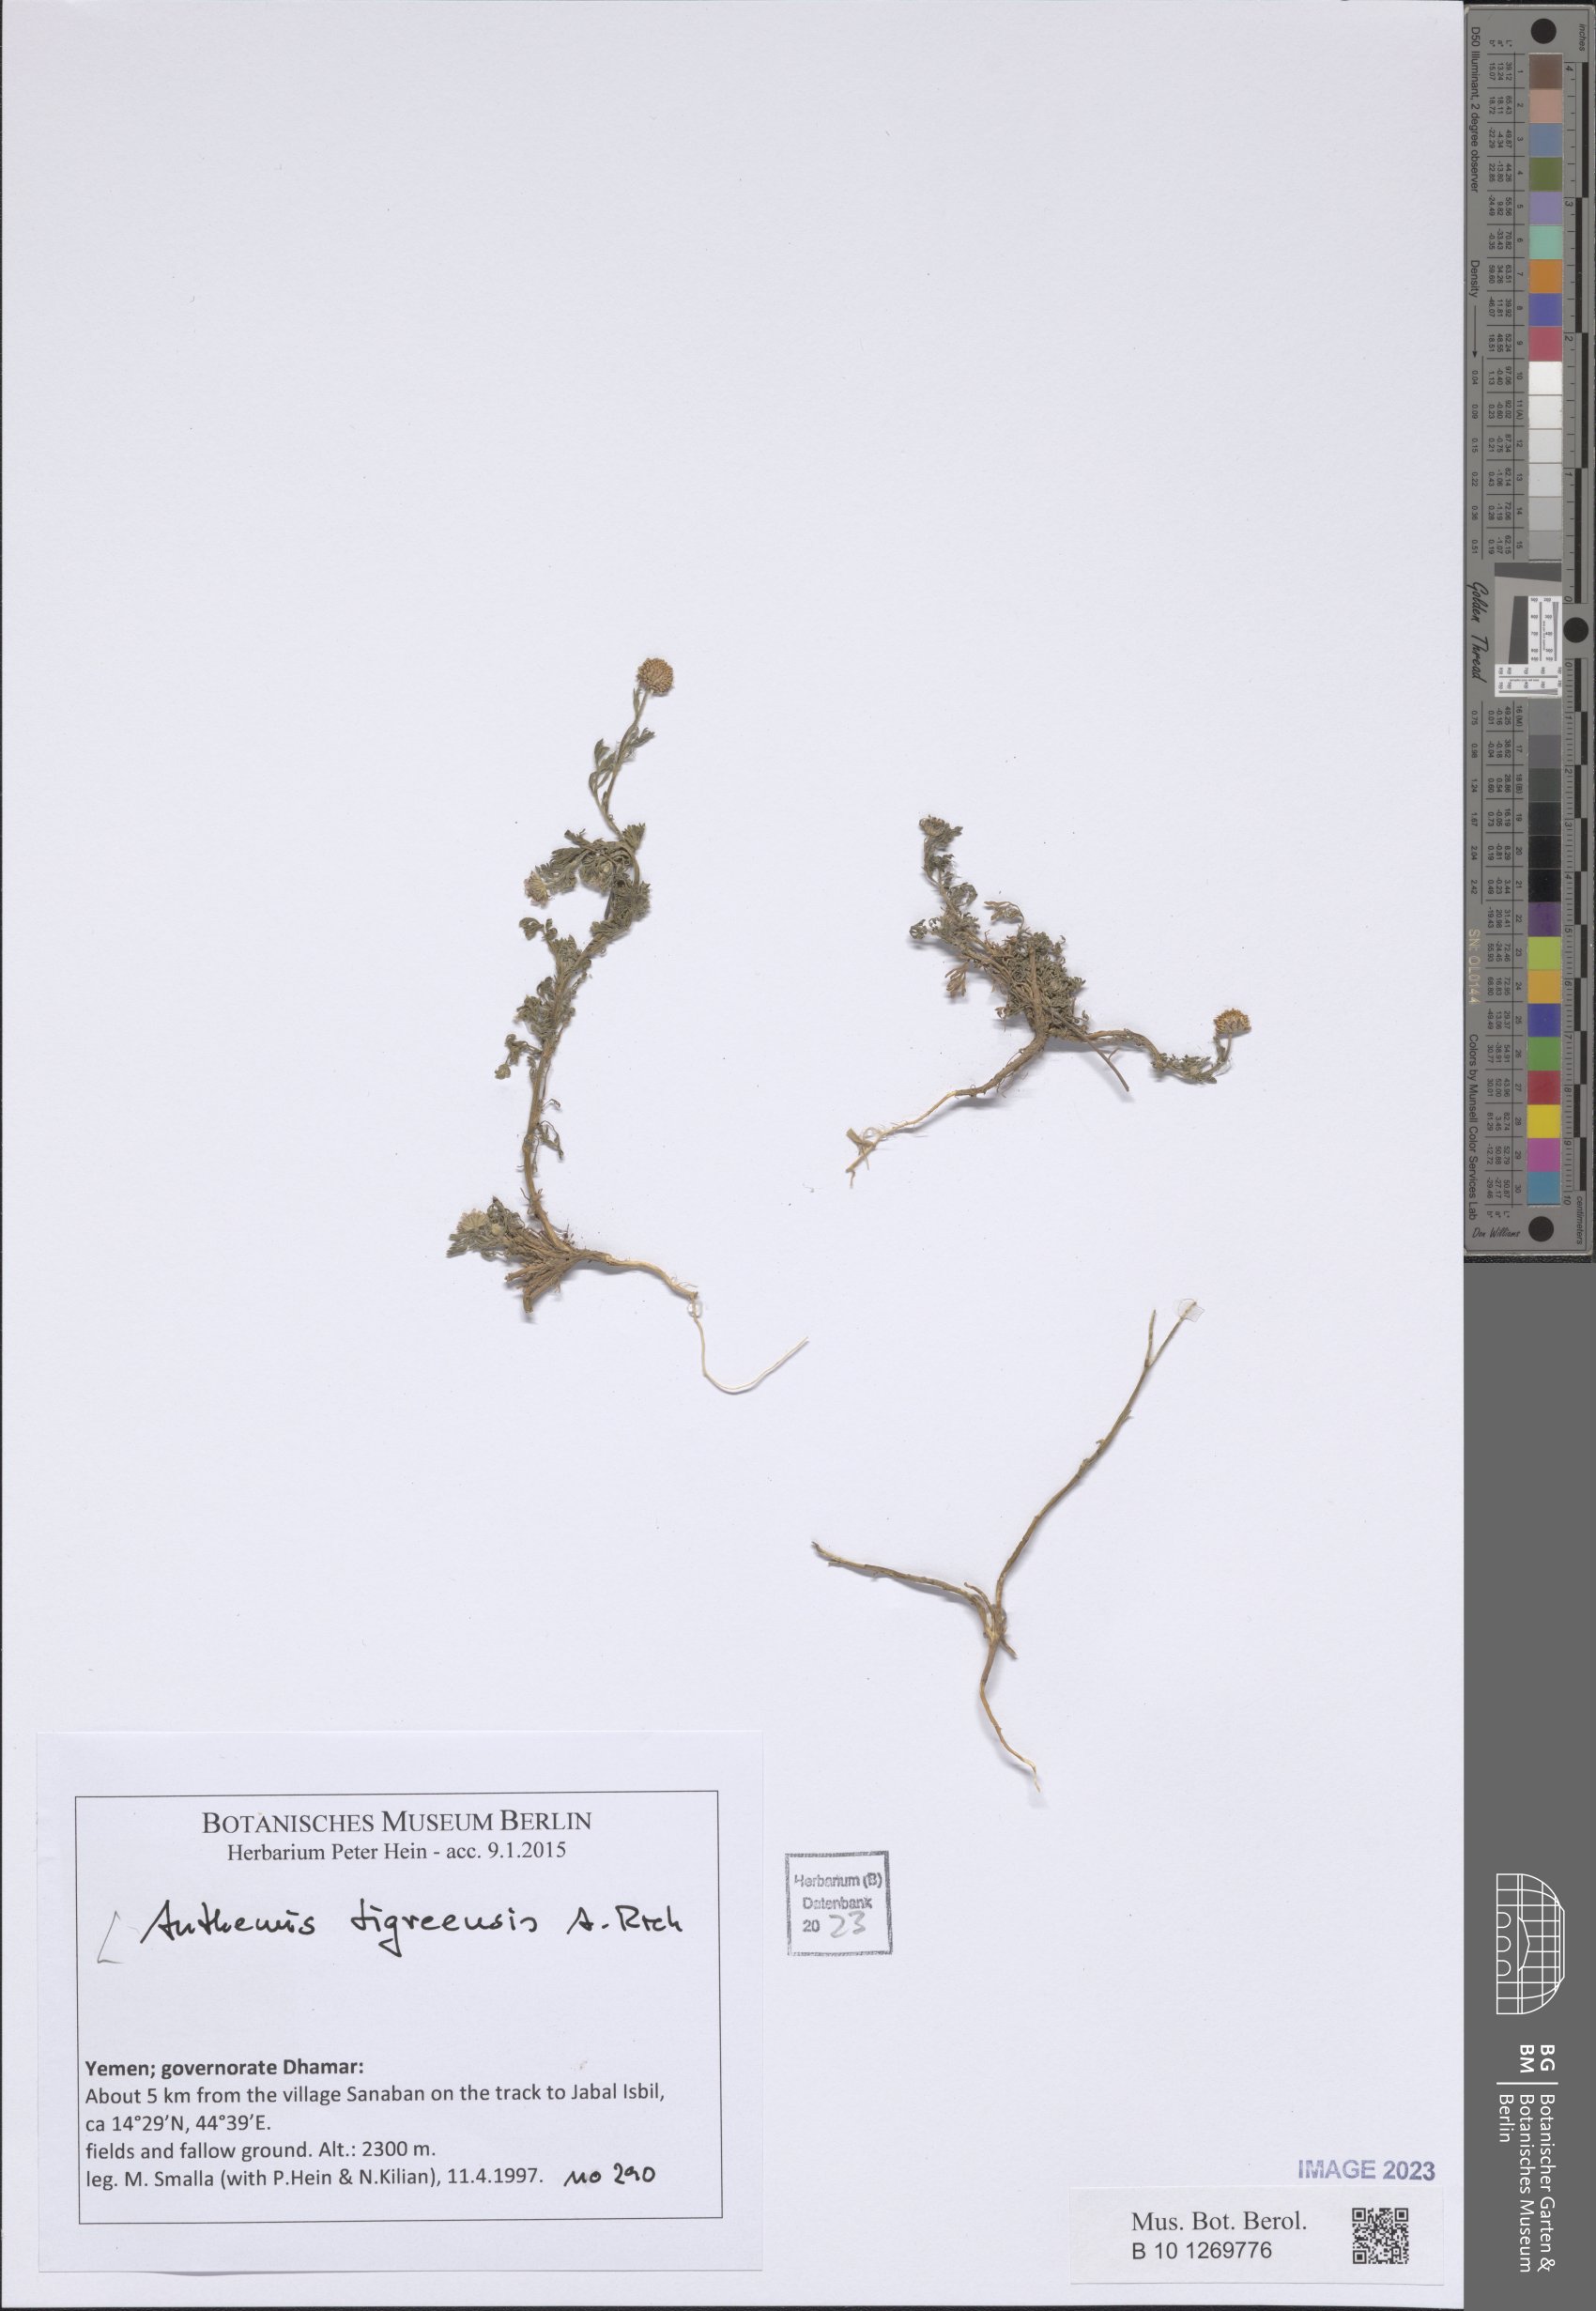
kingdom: Plantae
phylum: Tracheophyta
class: Magnoliopsida
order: Asterales
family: Asteraceae
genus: Anthemis
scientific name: Anthemis tigreensis
